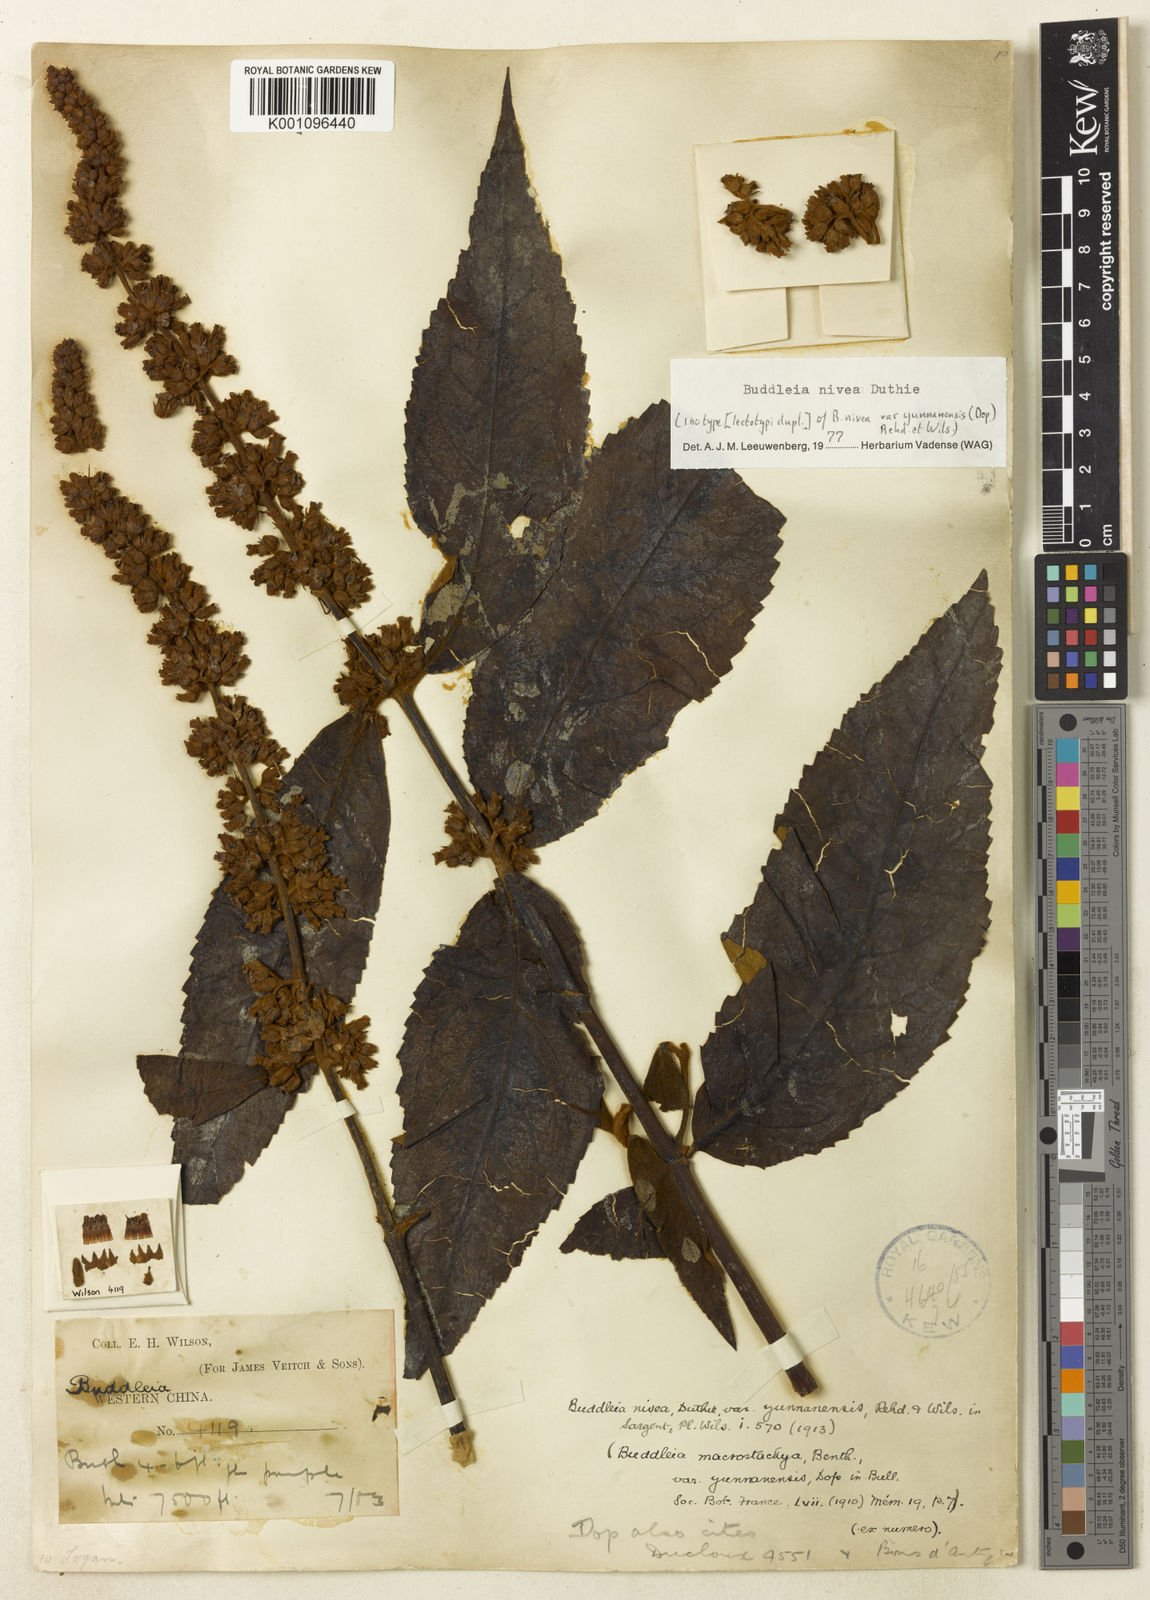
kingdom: Plantae
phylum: Tracheophyta
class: Magnoliopsida
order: Lamiales
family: Scrophulariaceae
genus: Buddleja
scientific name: Buddleja nivea
